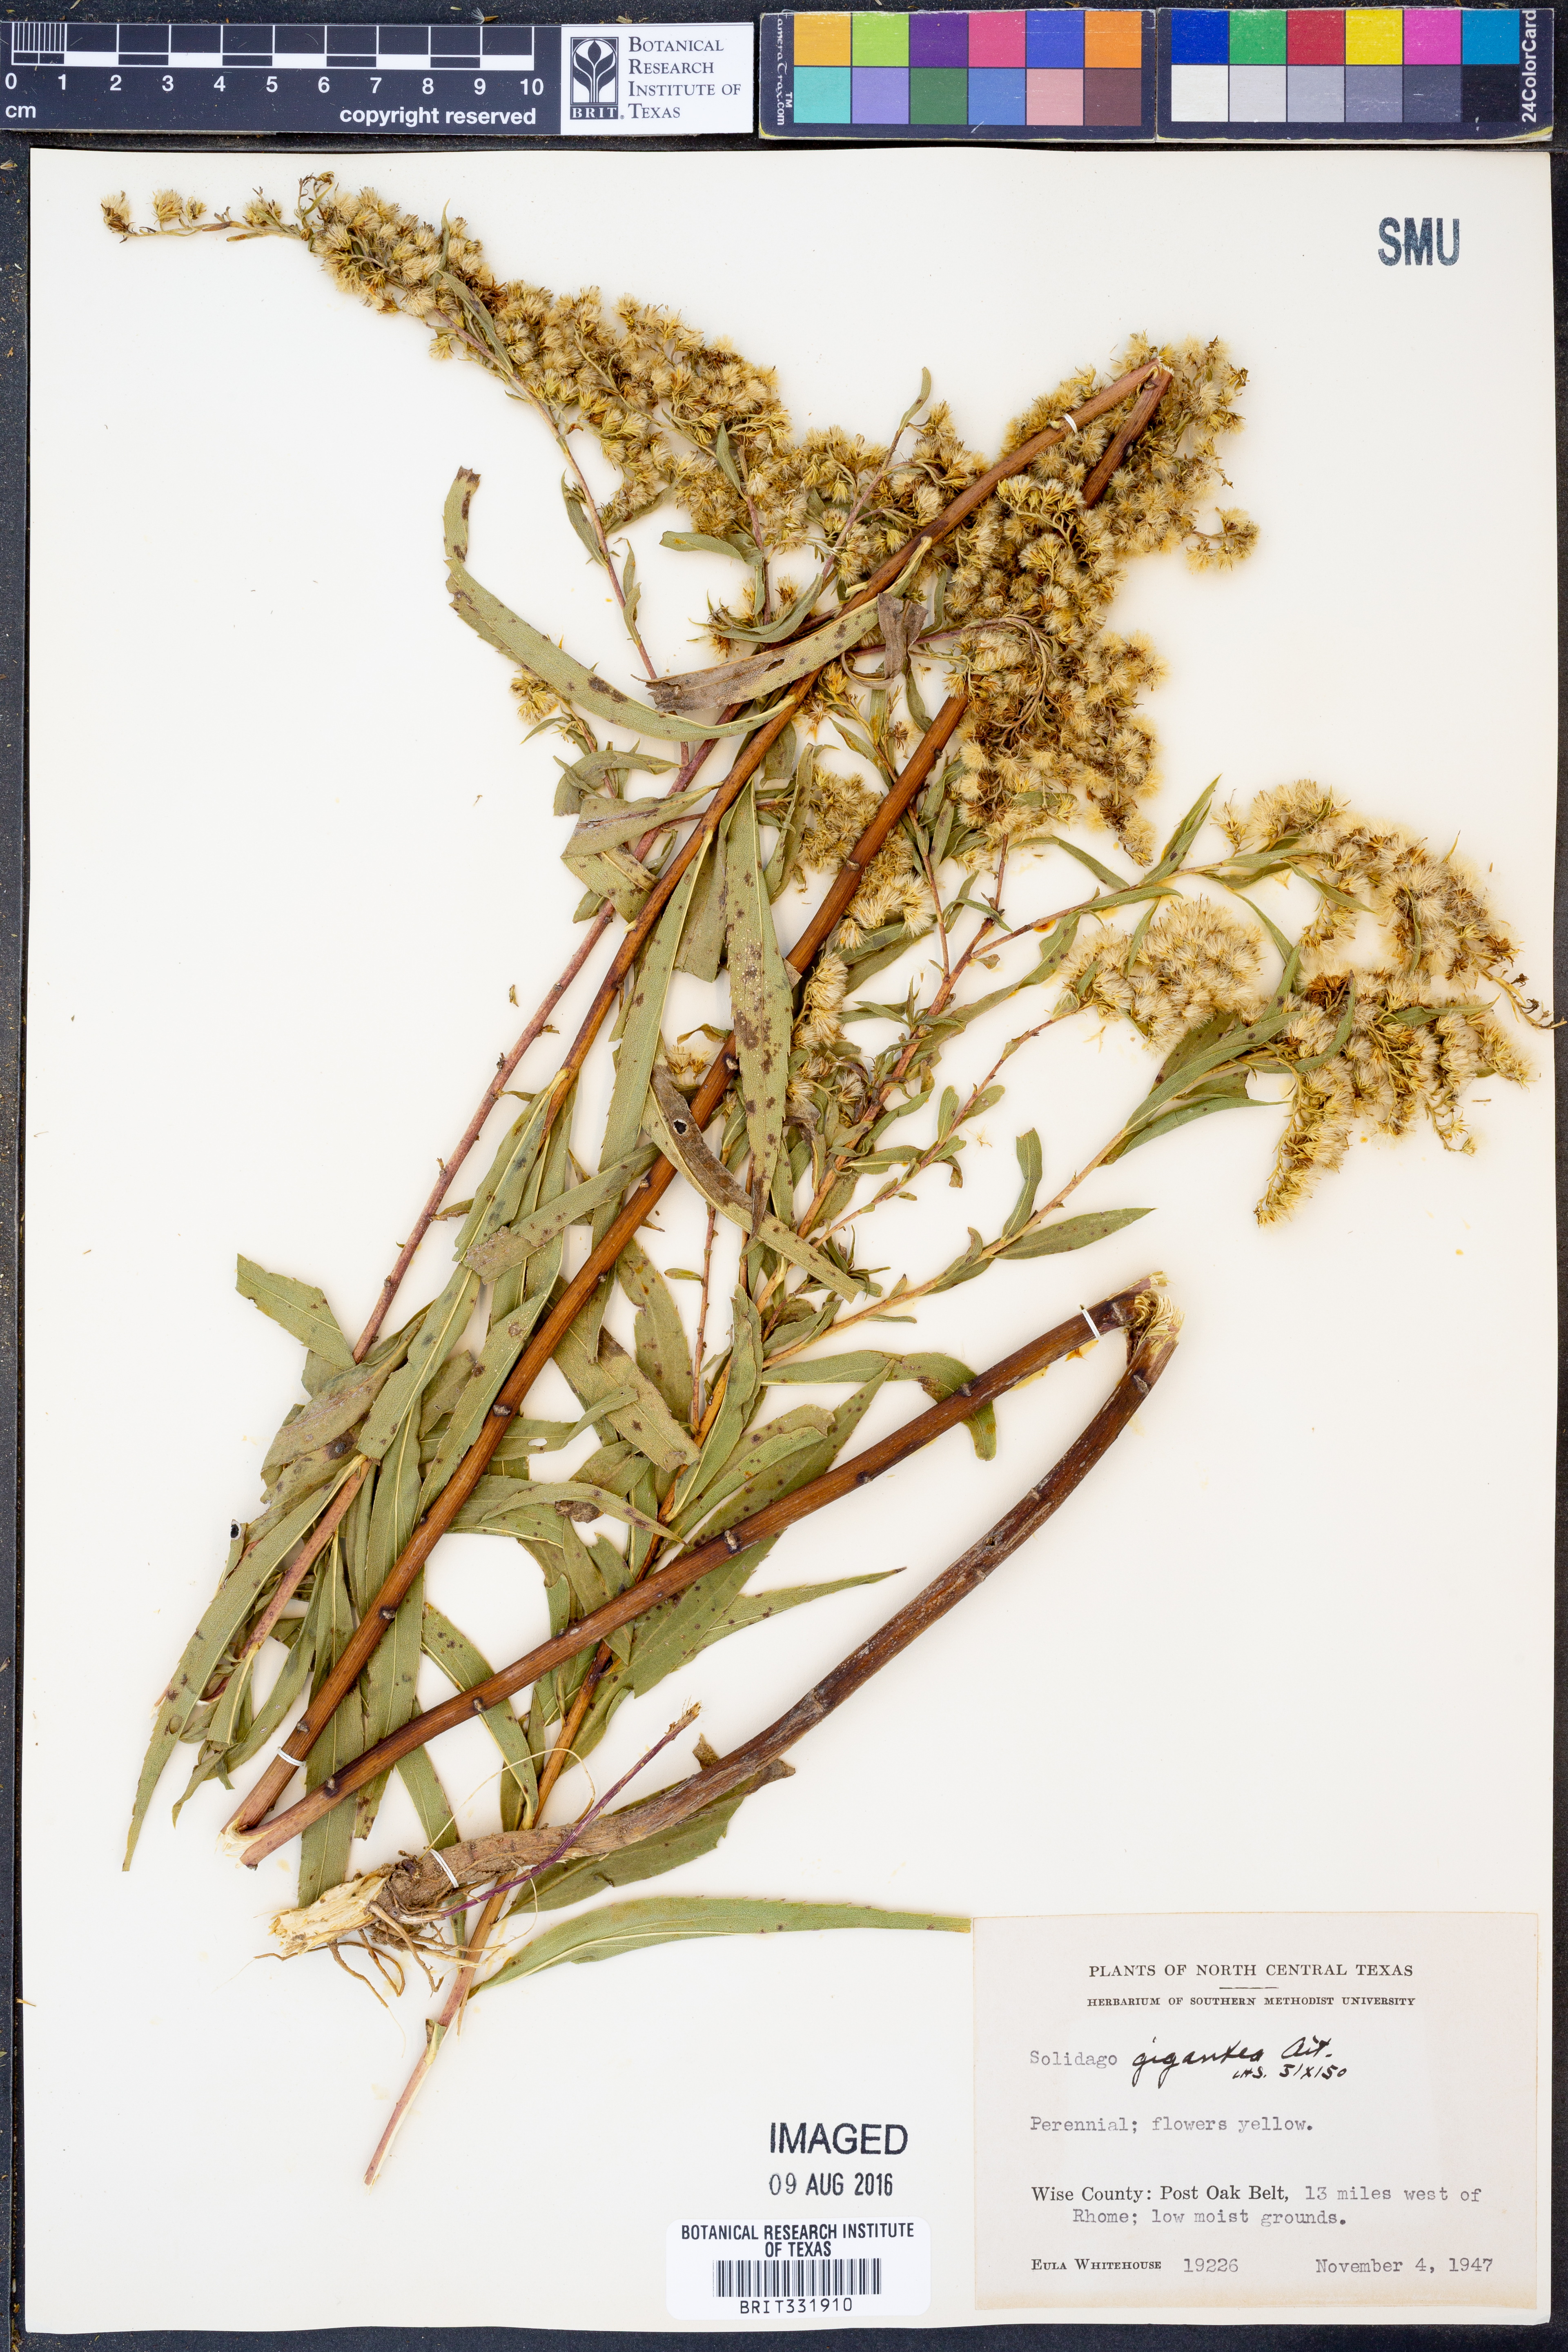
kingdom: Plantae
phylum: Tracheophyta
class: Magnoliopsida
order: Asterales
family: Asteraceae
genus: Solidago
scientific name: Solidago gigantea
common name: Giant goldenrod
